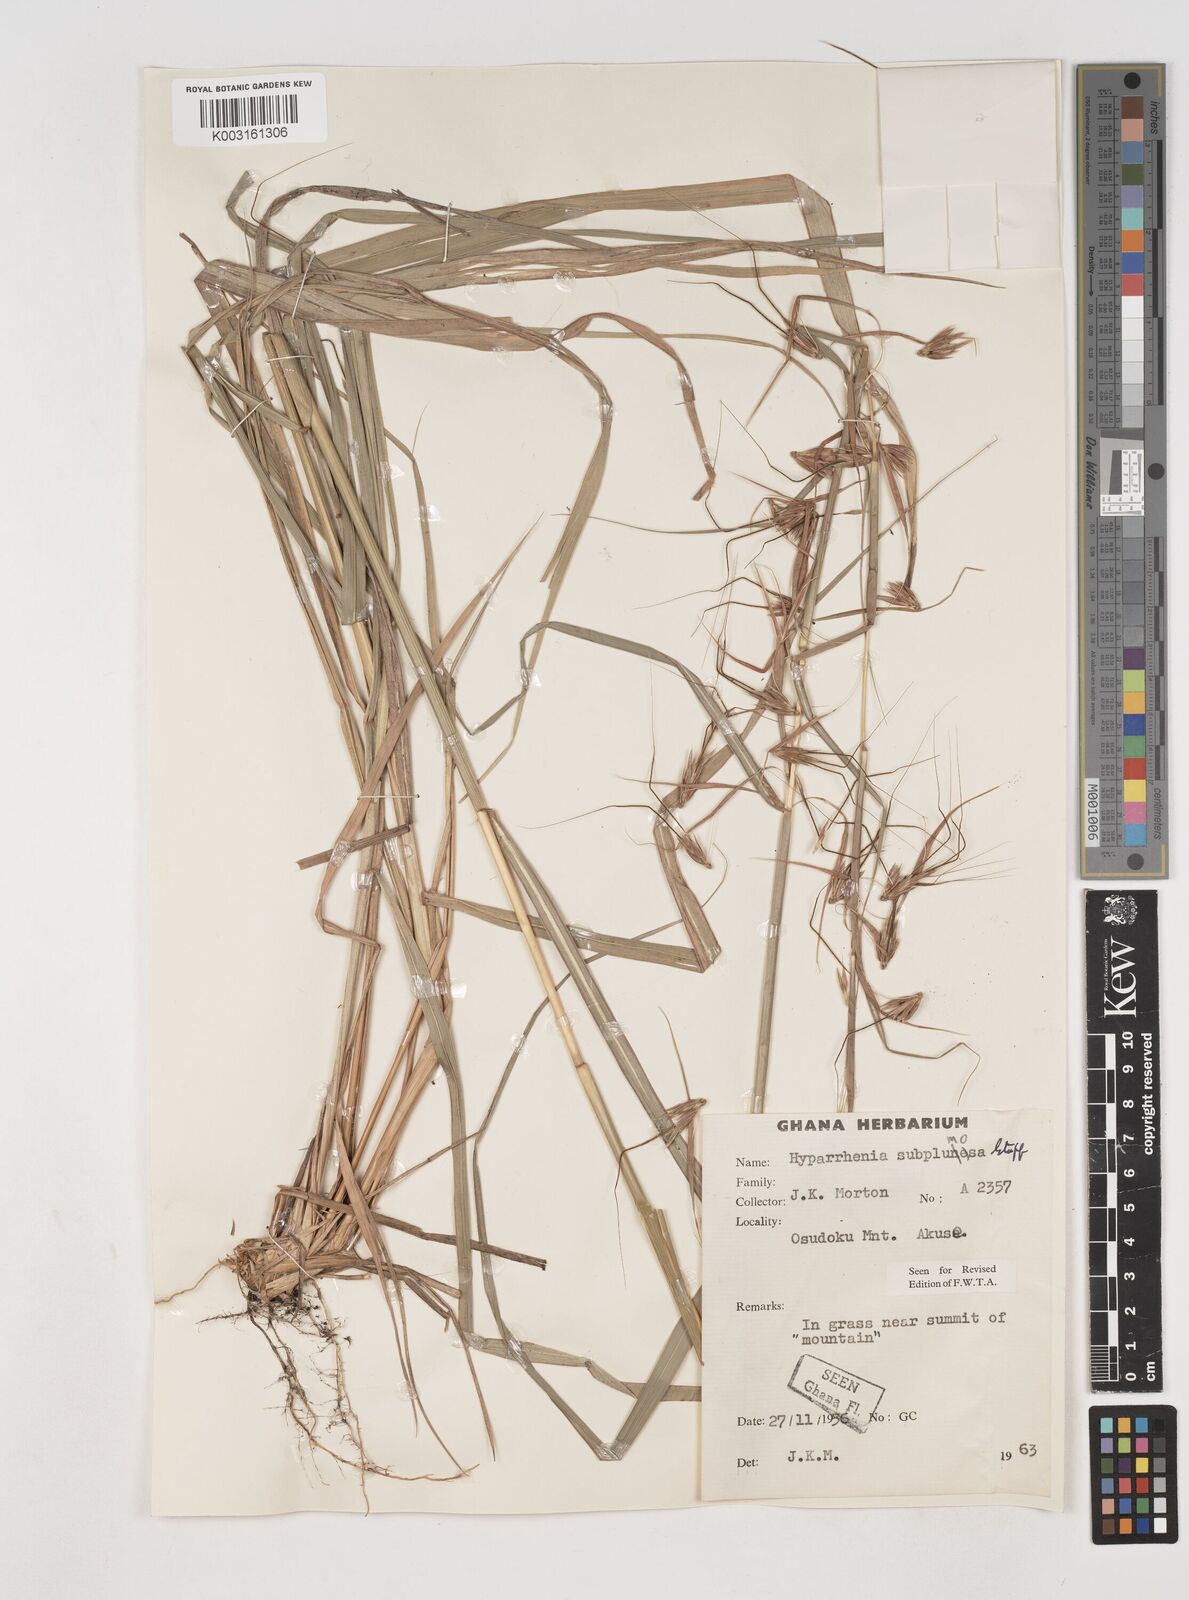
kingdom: Plantae
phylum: Tracheophyta
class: Liliopsida
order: Poales
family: Poaceae
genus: Hyparrhenia
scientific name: Hyparrhenia subplumosa
